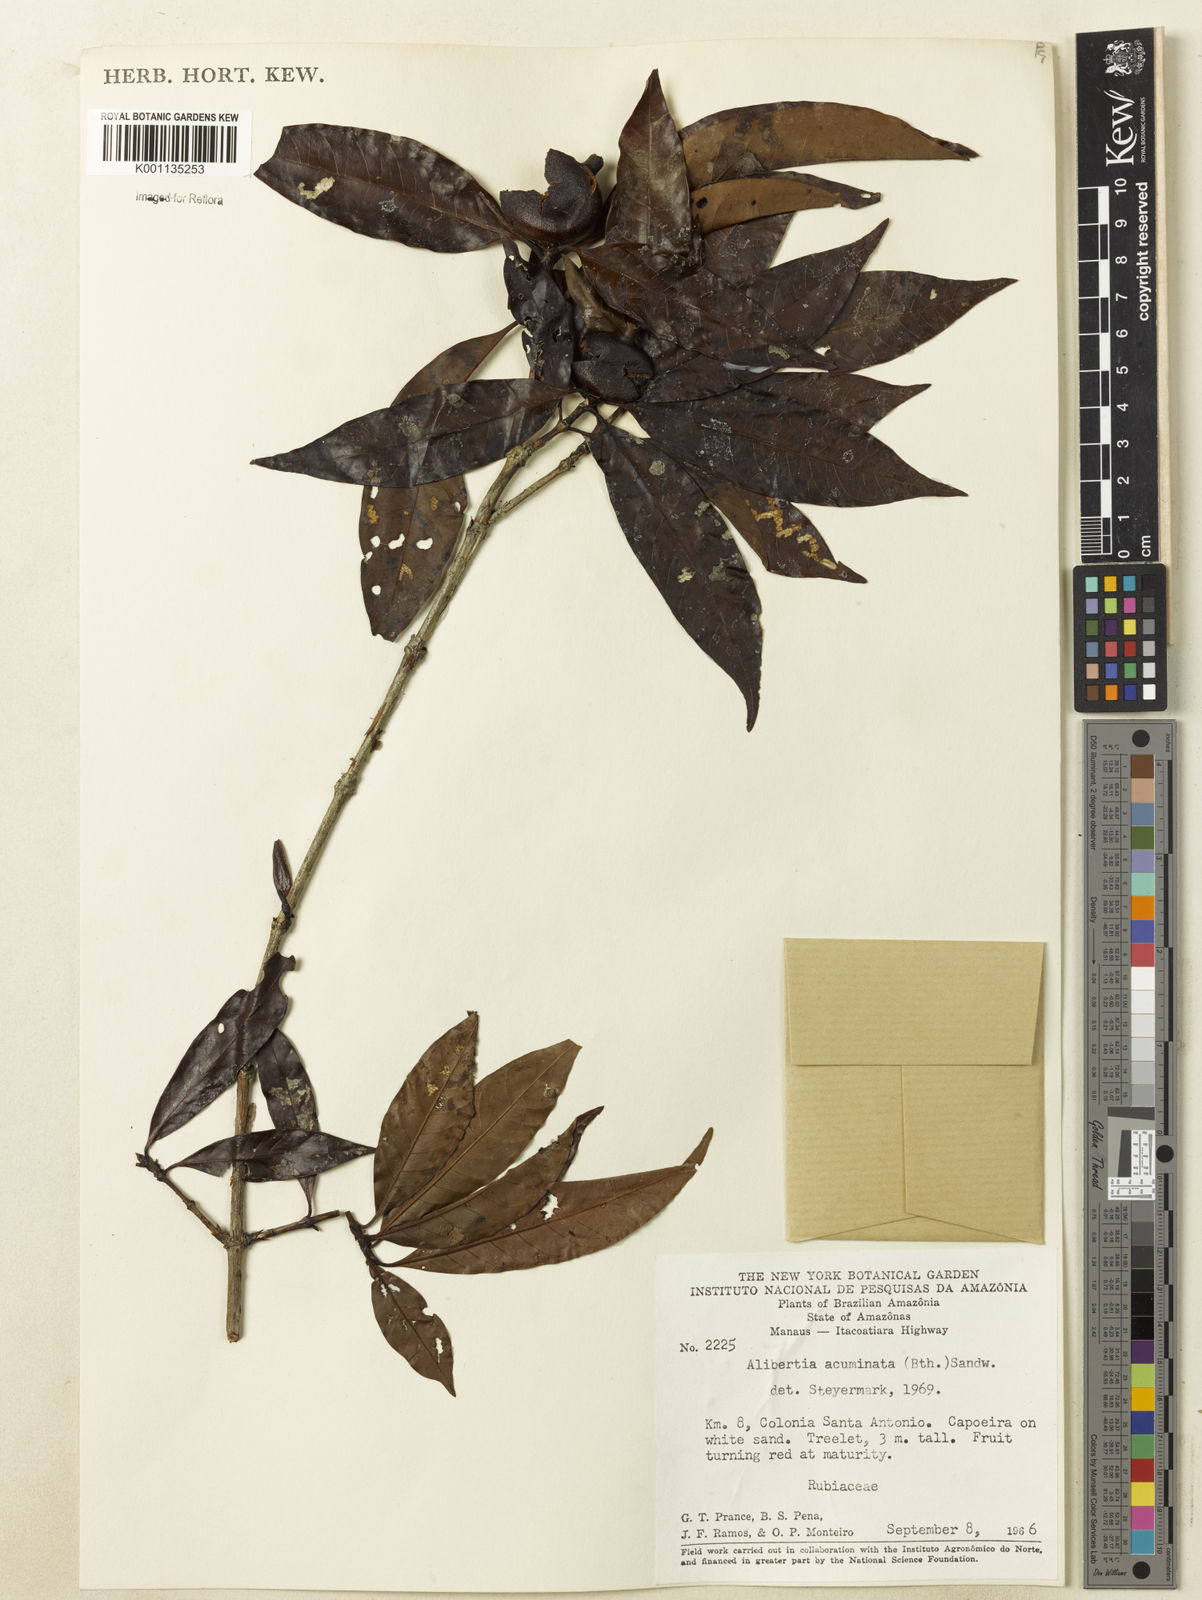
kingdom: Plantae
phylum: Tracheophyta
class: Magnoliopsida
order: Gentianales
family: Rubiaceae
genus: Alibertia
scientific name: Alibertia edulis
